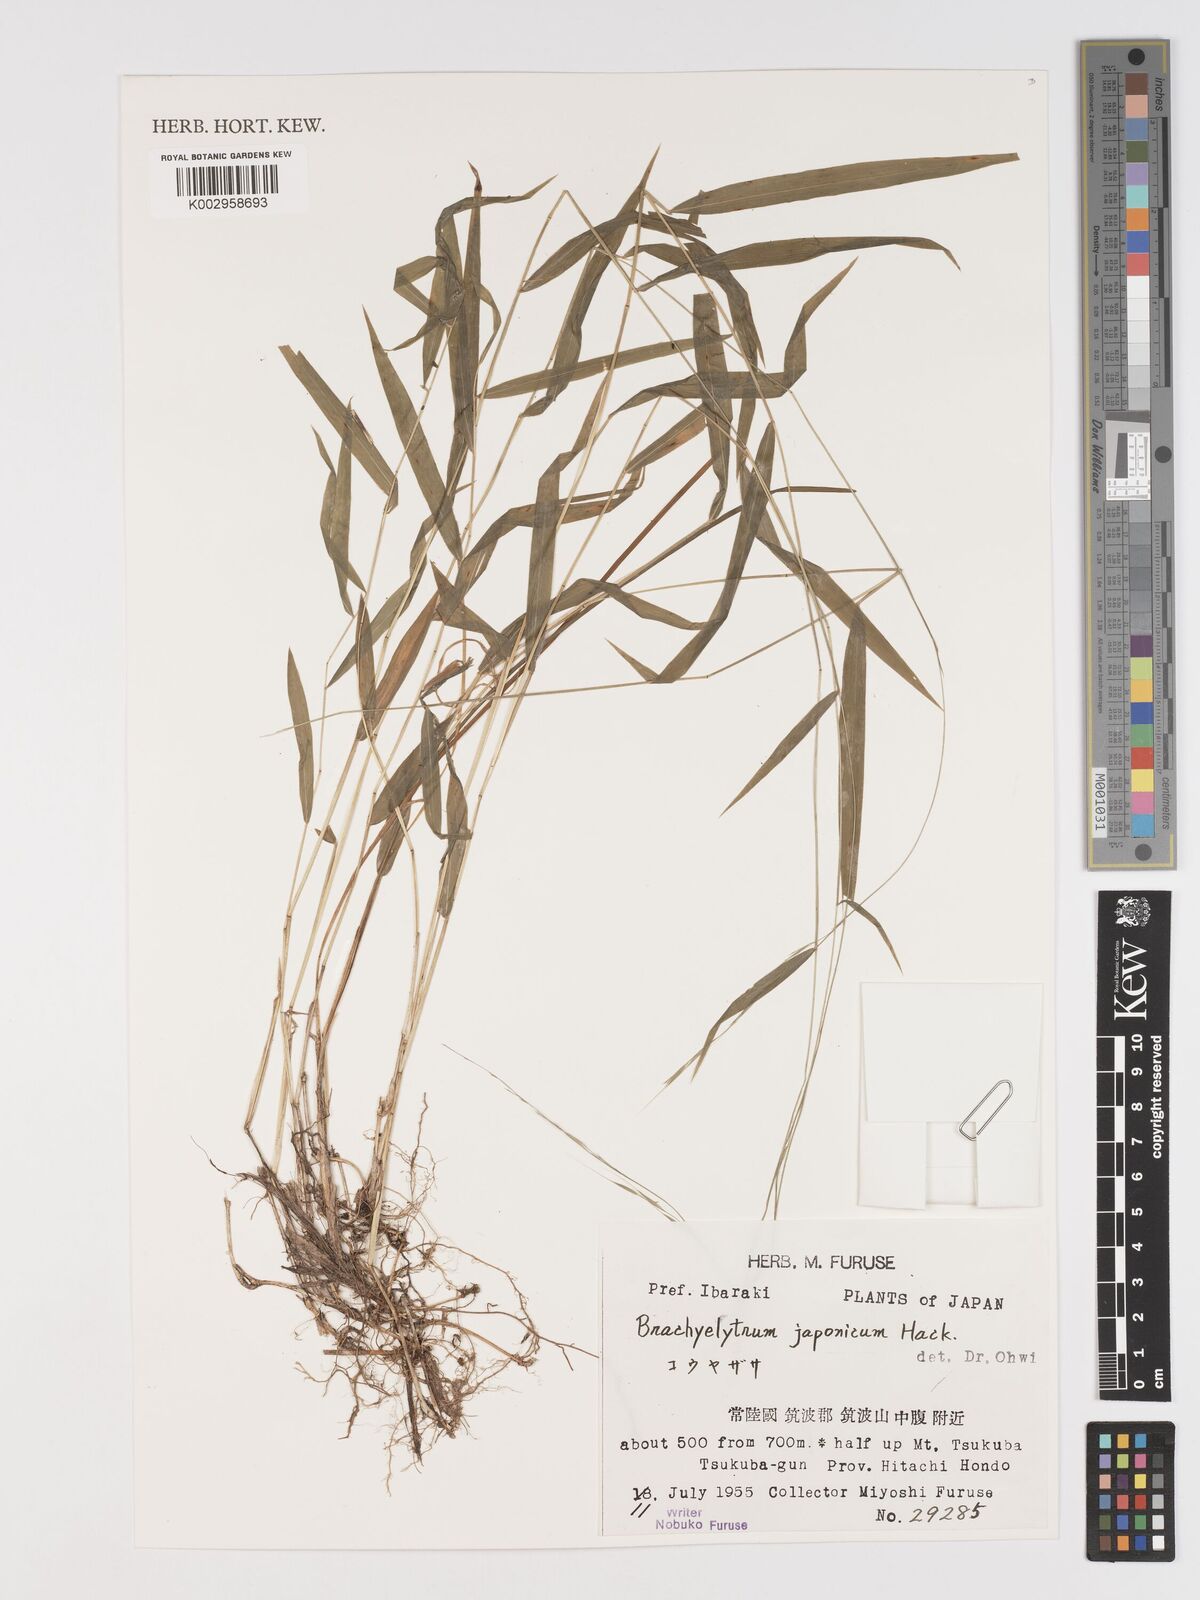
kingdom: Plantae
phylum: Tracheophyta
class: Liliopsida
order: Poales
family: Poaceae
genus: Brachyelytrum
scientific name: Brachyelytrum japonicum
